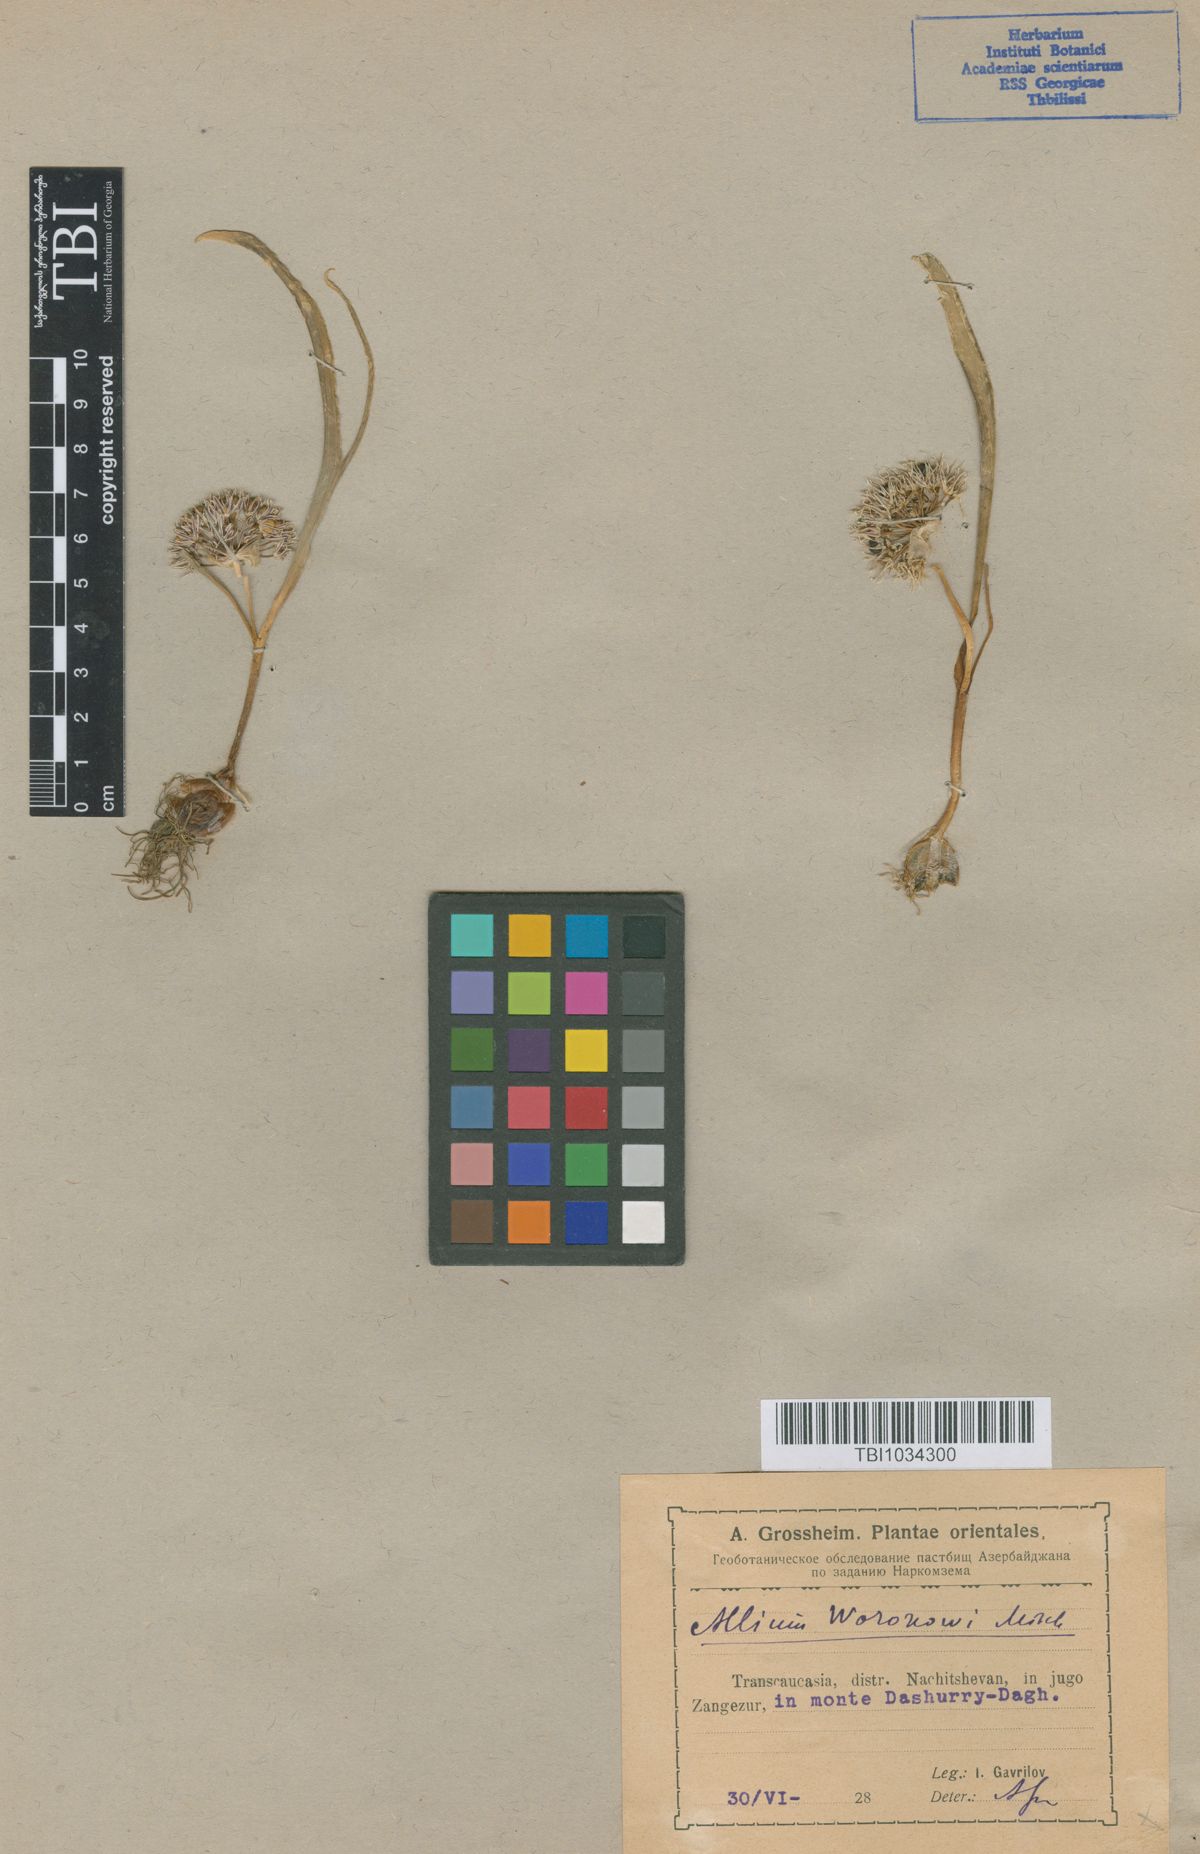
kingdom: Plantae
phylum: Tracheophyta
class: Liliopsida
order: Asparagales
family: Amaryllidaceae
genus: Allium
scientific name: Allium woronowii
